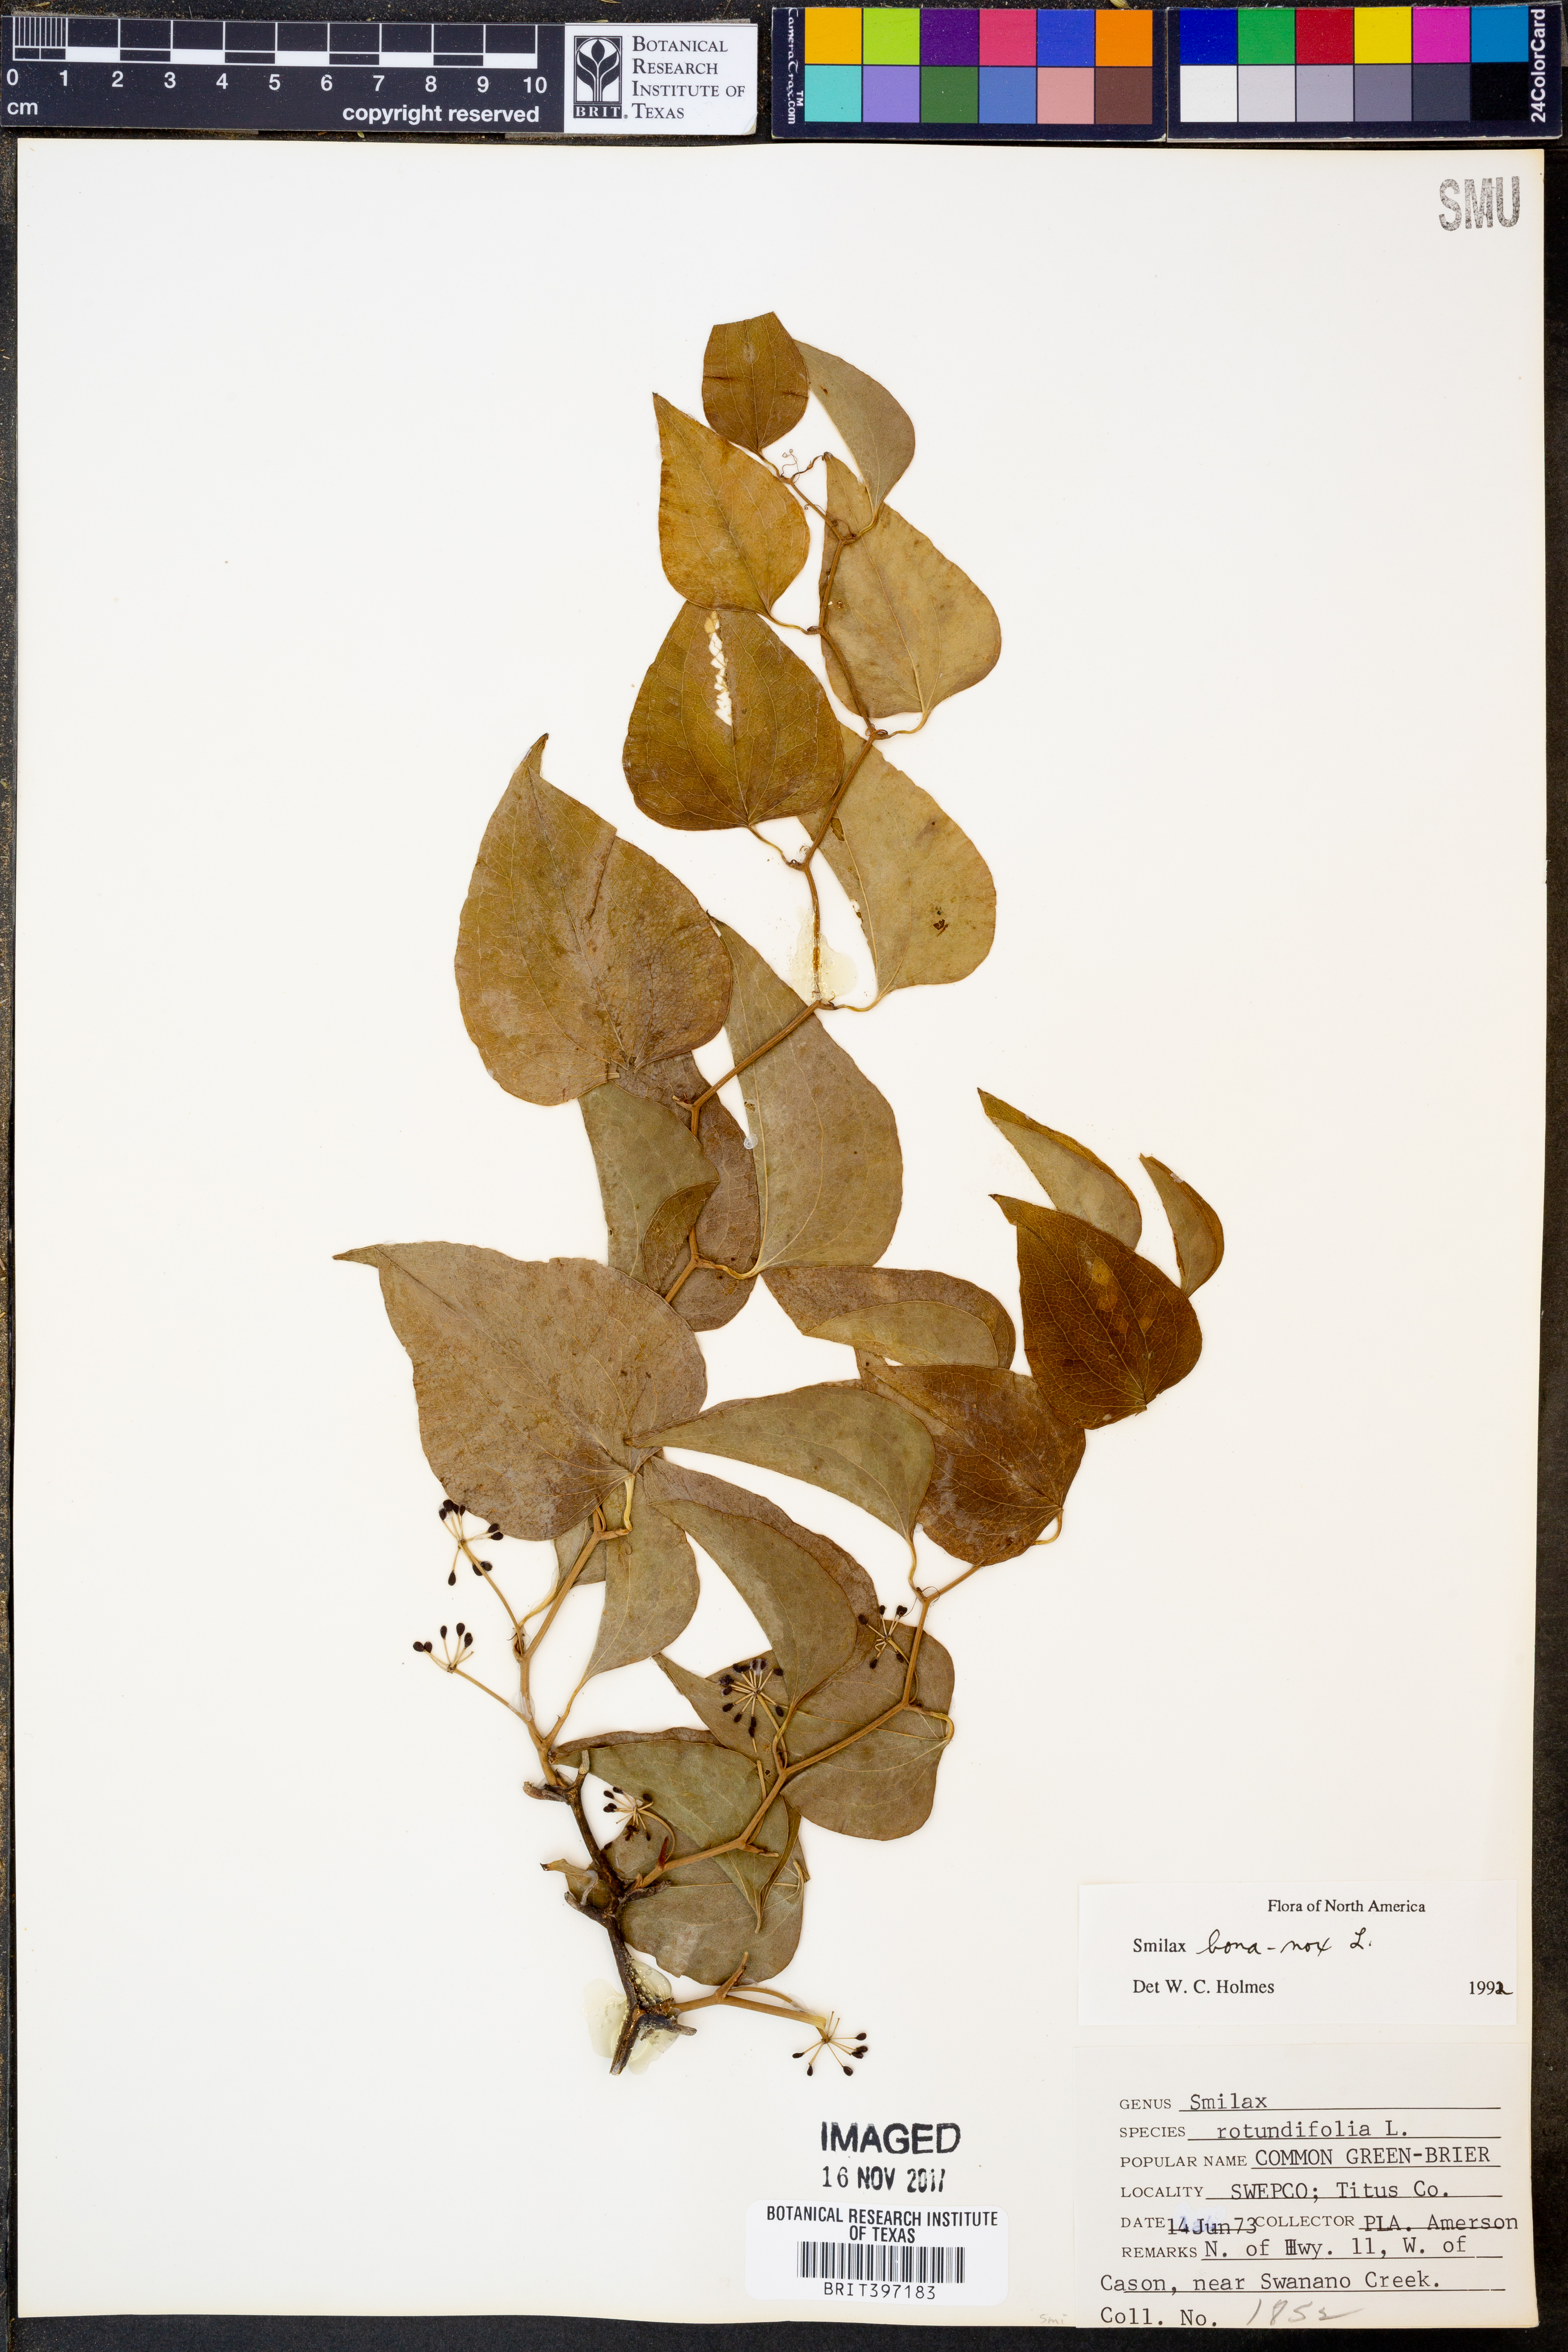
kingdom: Plantae
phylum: Tracheophyta
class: Liliopsida
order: Liliales
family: Smilacaceae
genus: Smilax
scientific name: Smilax bona-nox
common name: Catbrier
